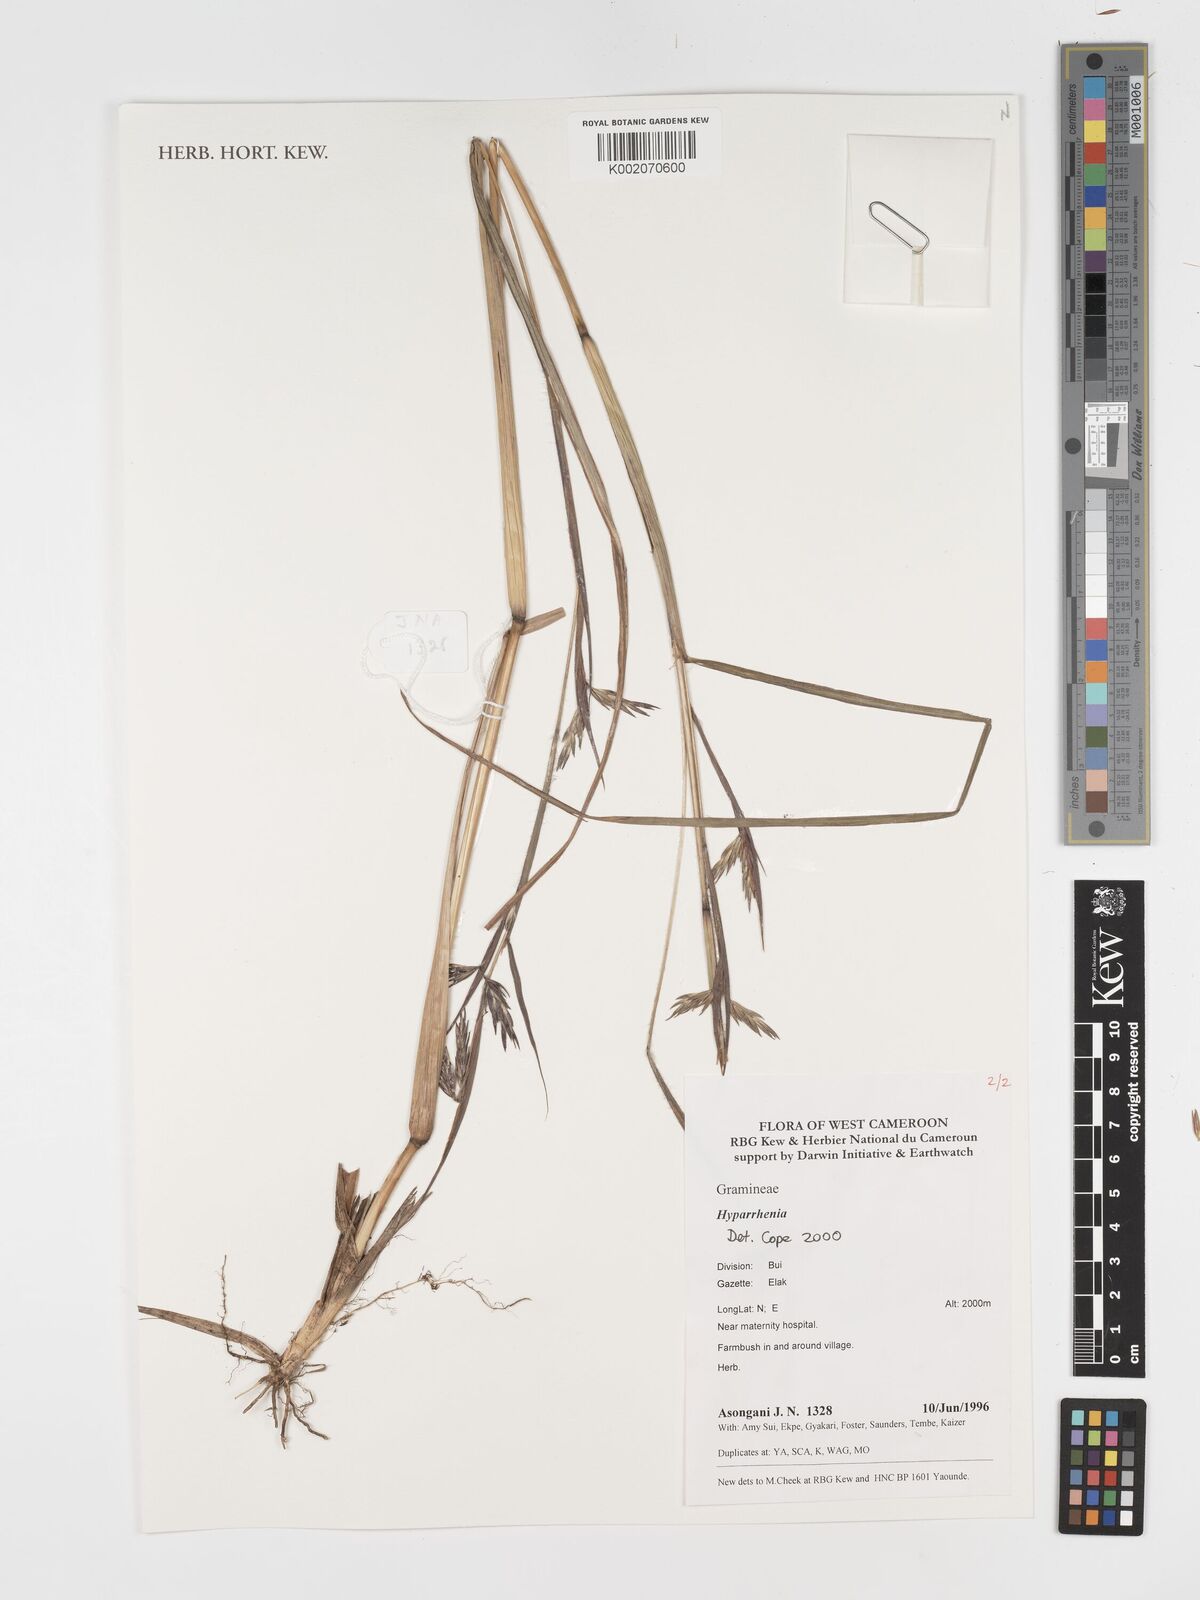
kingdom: Plantae
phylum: Tracheophyta
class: Liliopsida
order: Poales
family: Poaceae
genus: Hyparrhenia
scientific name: Hyparrhenia
